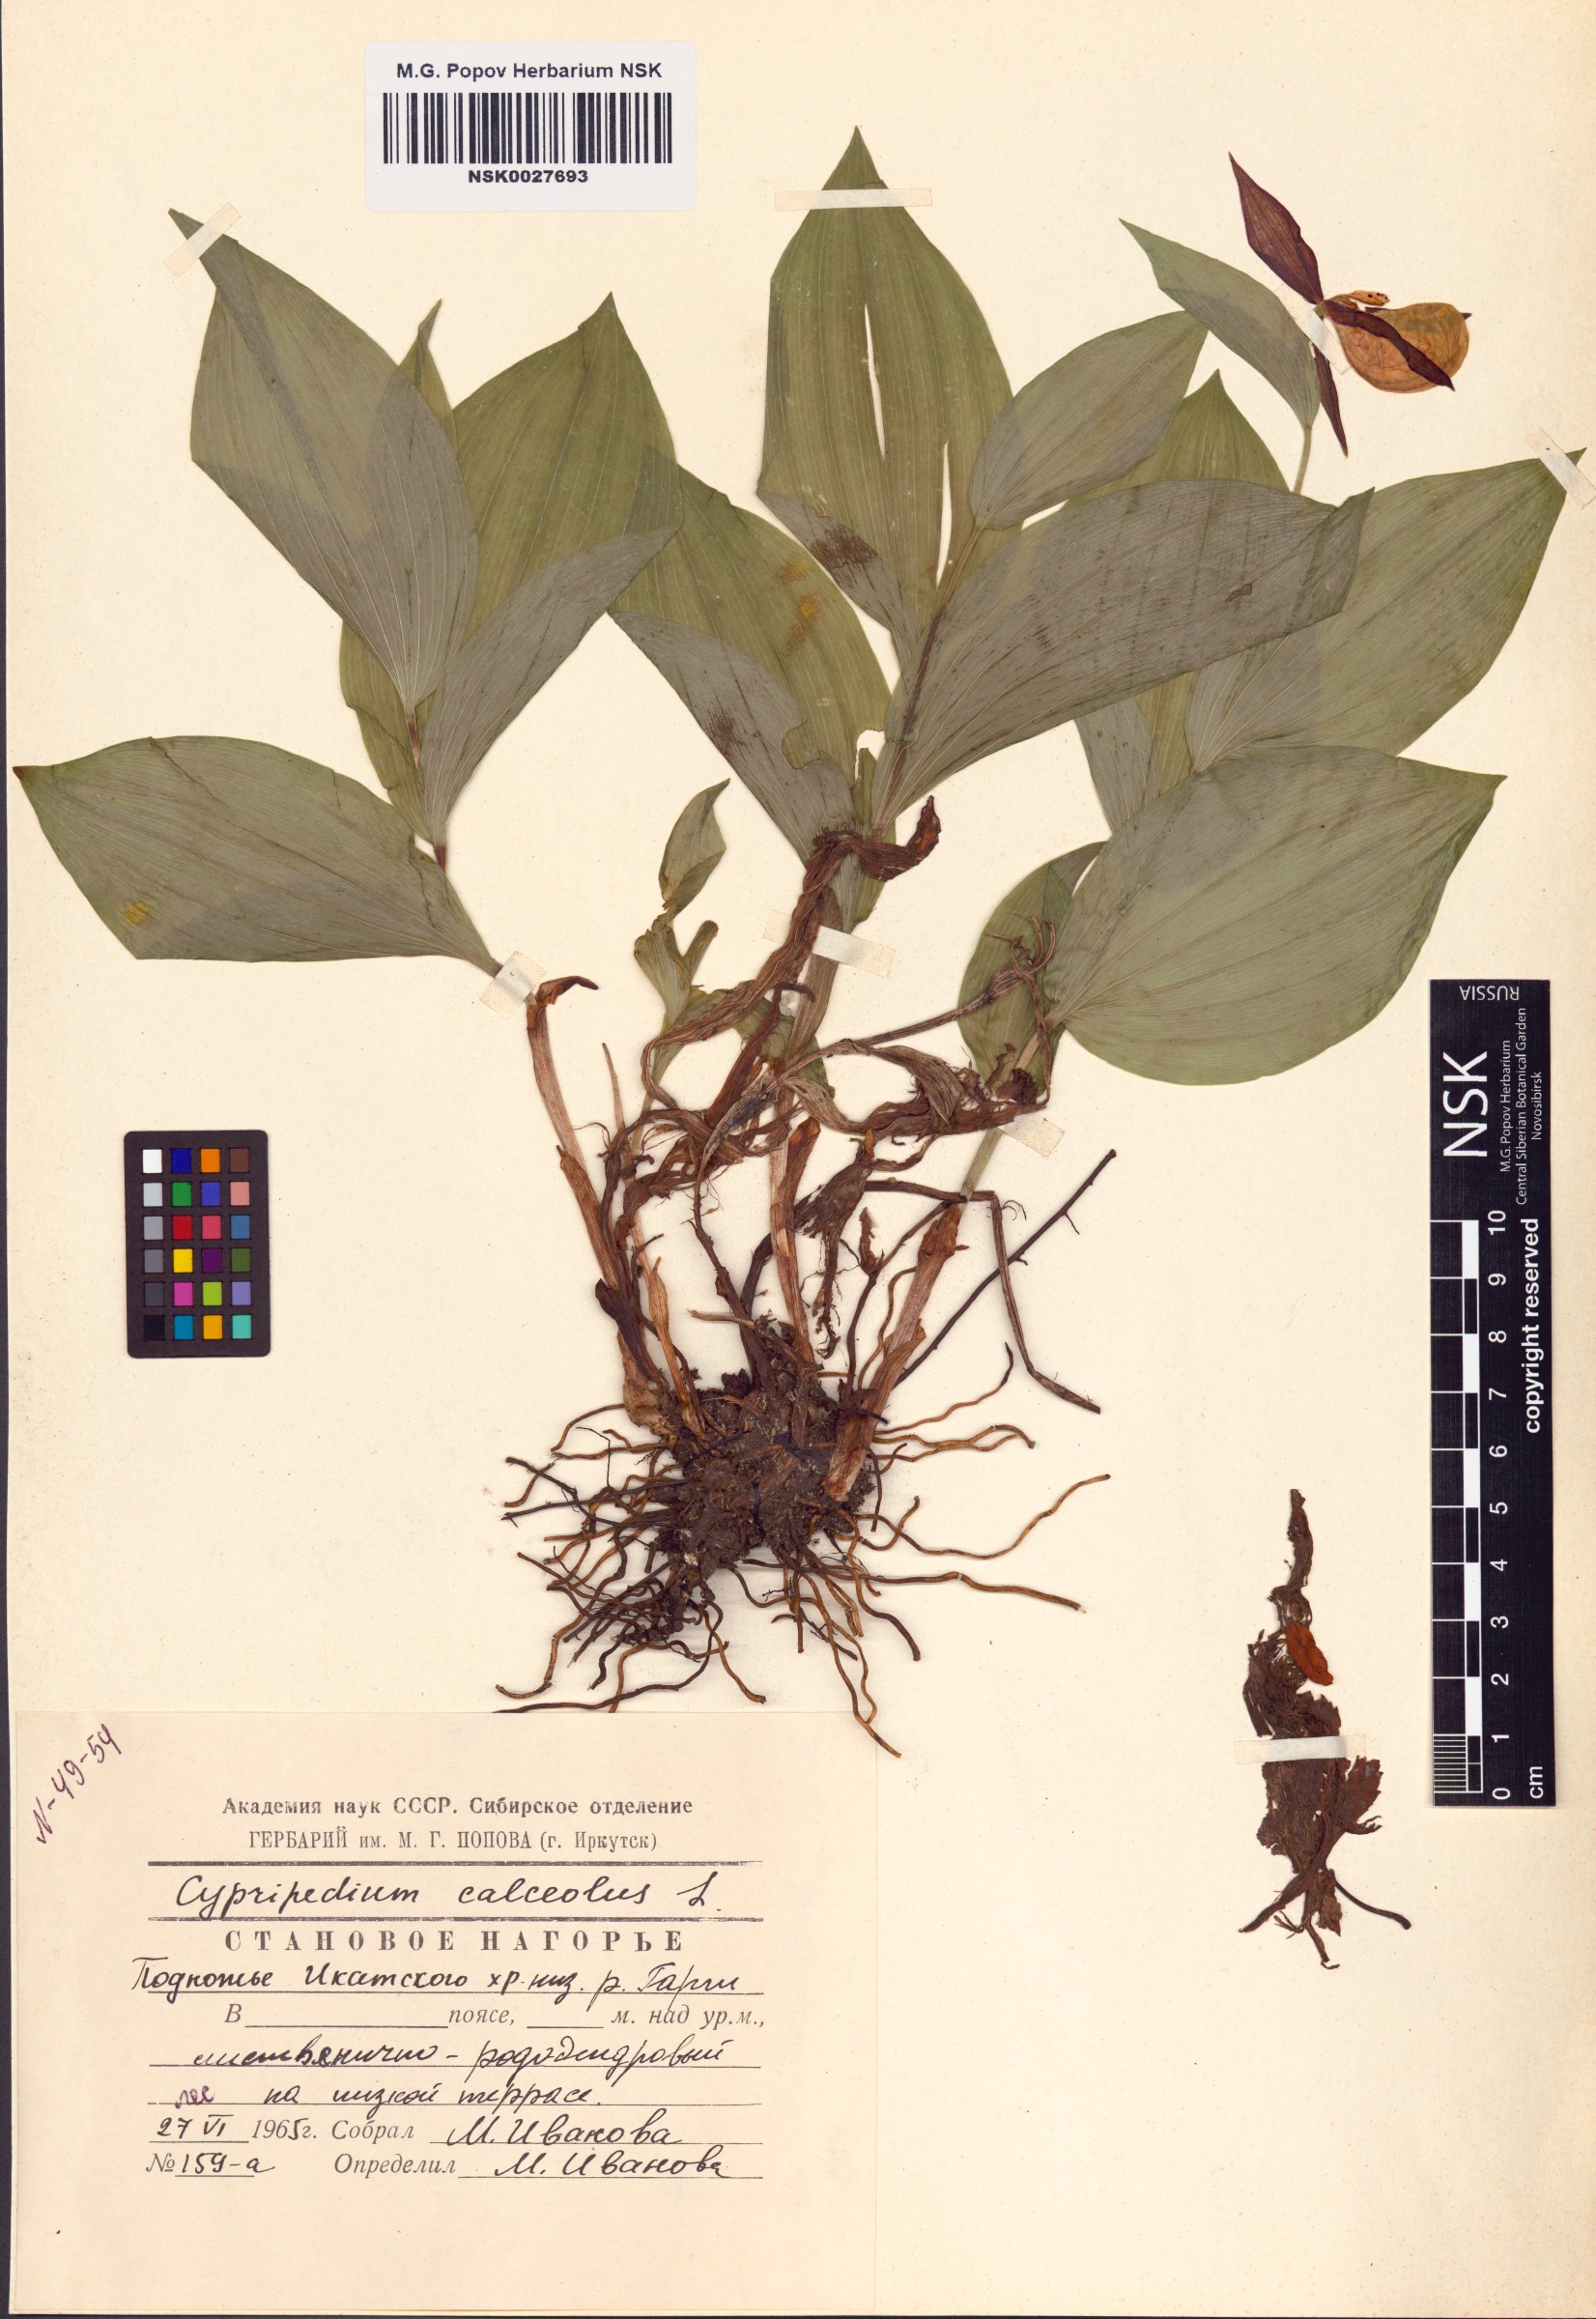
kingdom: Plantae
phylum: Tracheophyta
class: Liliopsida
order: Asparagales
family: Orchidaceae
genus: Cypripedium
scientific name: Cypripedium calceolus
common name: Lady's-slipper
